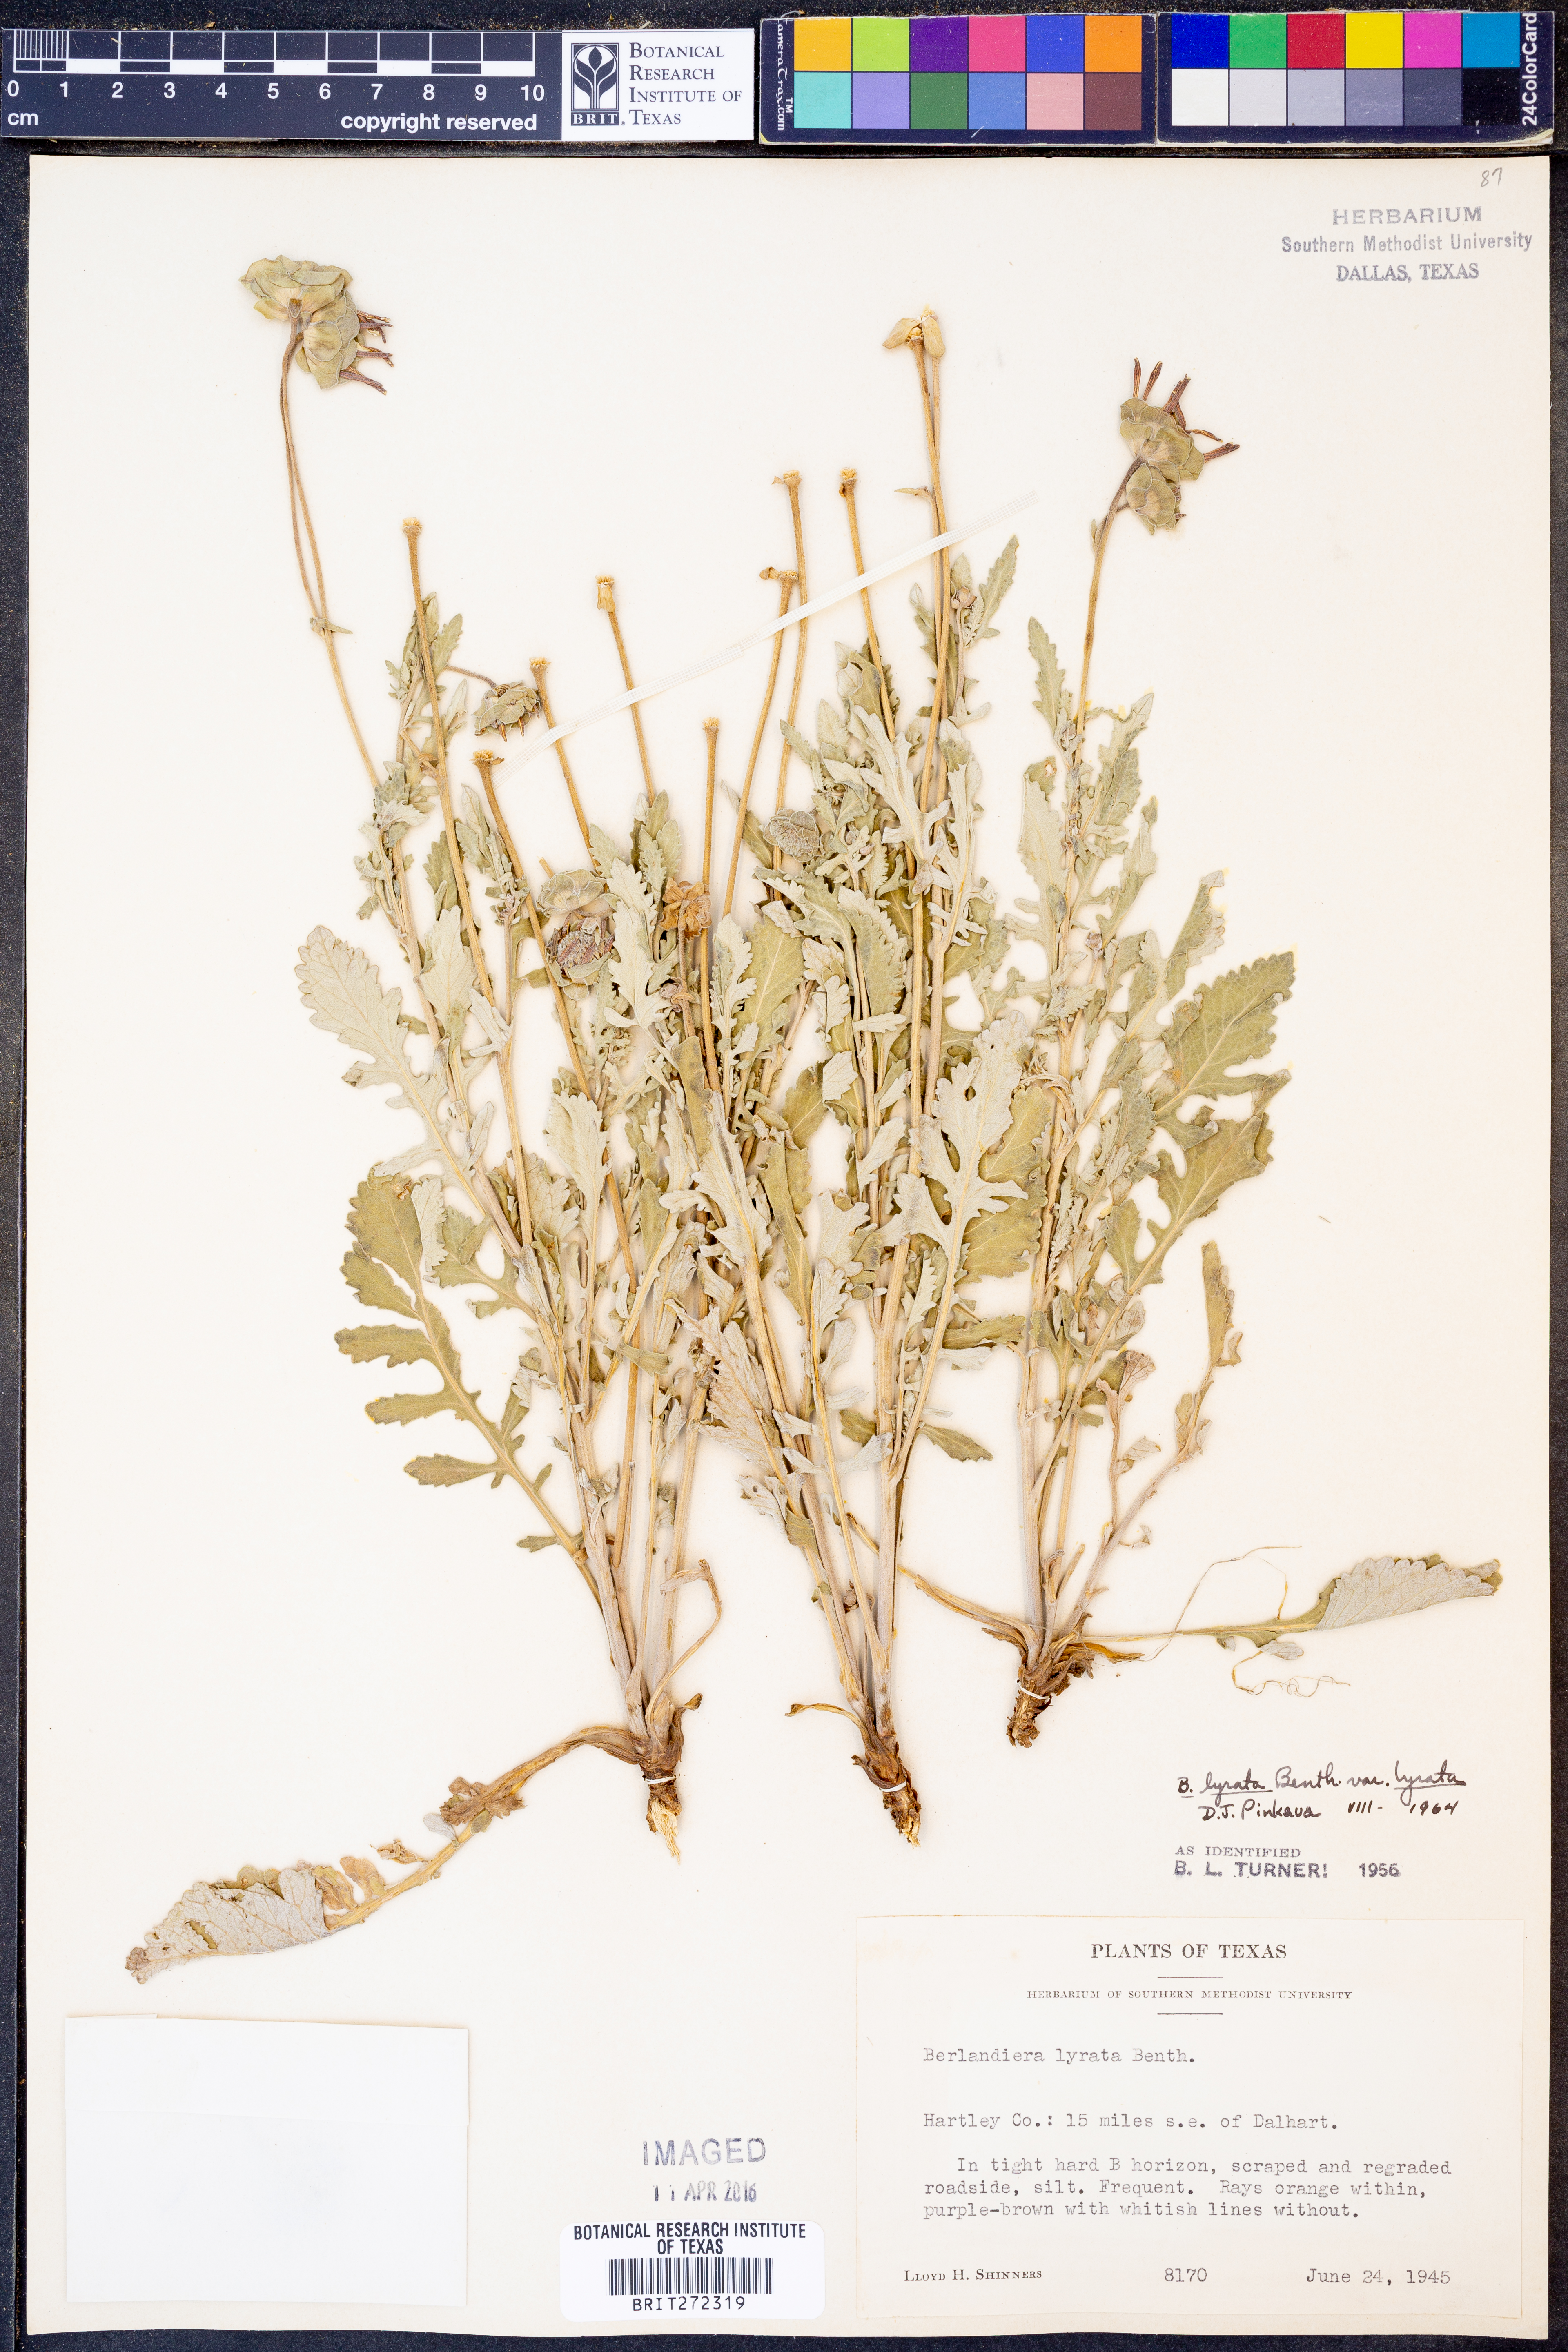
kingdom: Plantae
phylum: Tracheophyta
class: Magnoliopsida
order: Asterales
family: Asteraceae
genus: Berlandiera
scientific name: Berlandiera lyrata
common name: Chocolate-flower
